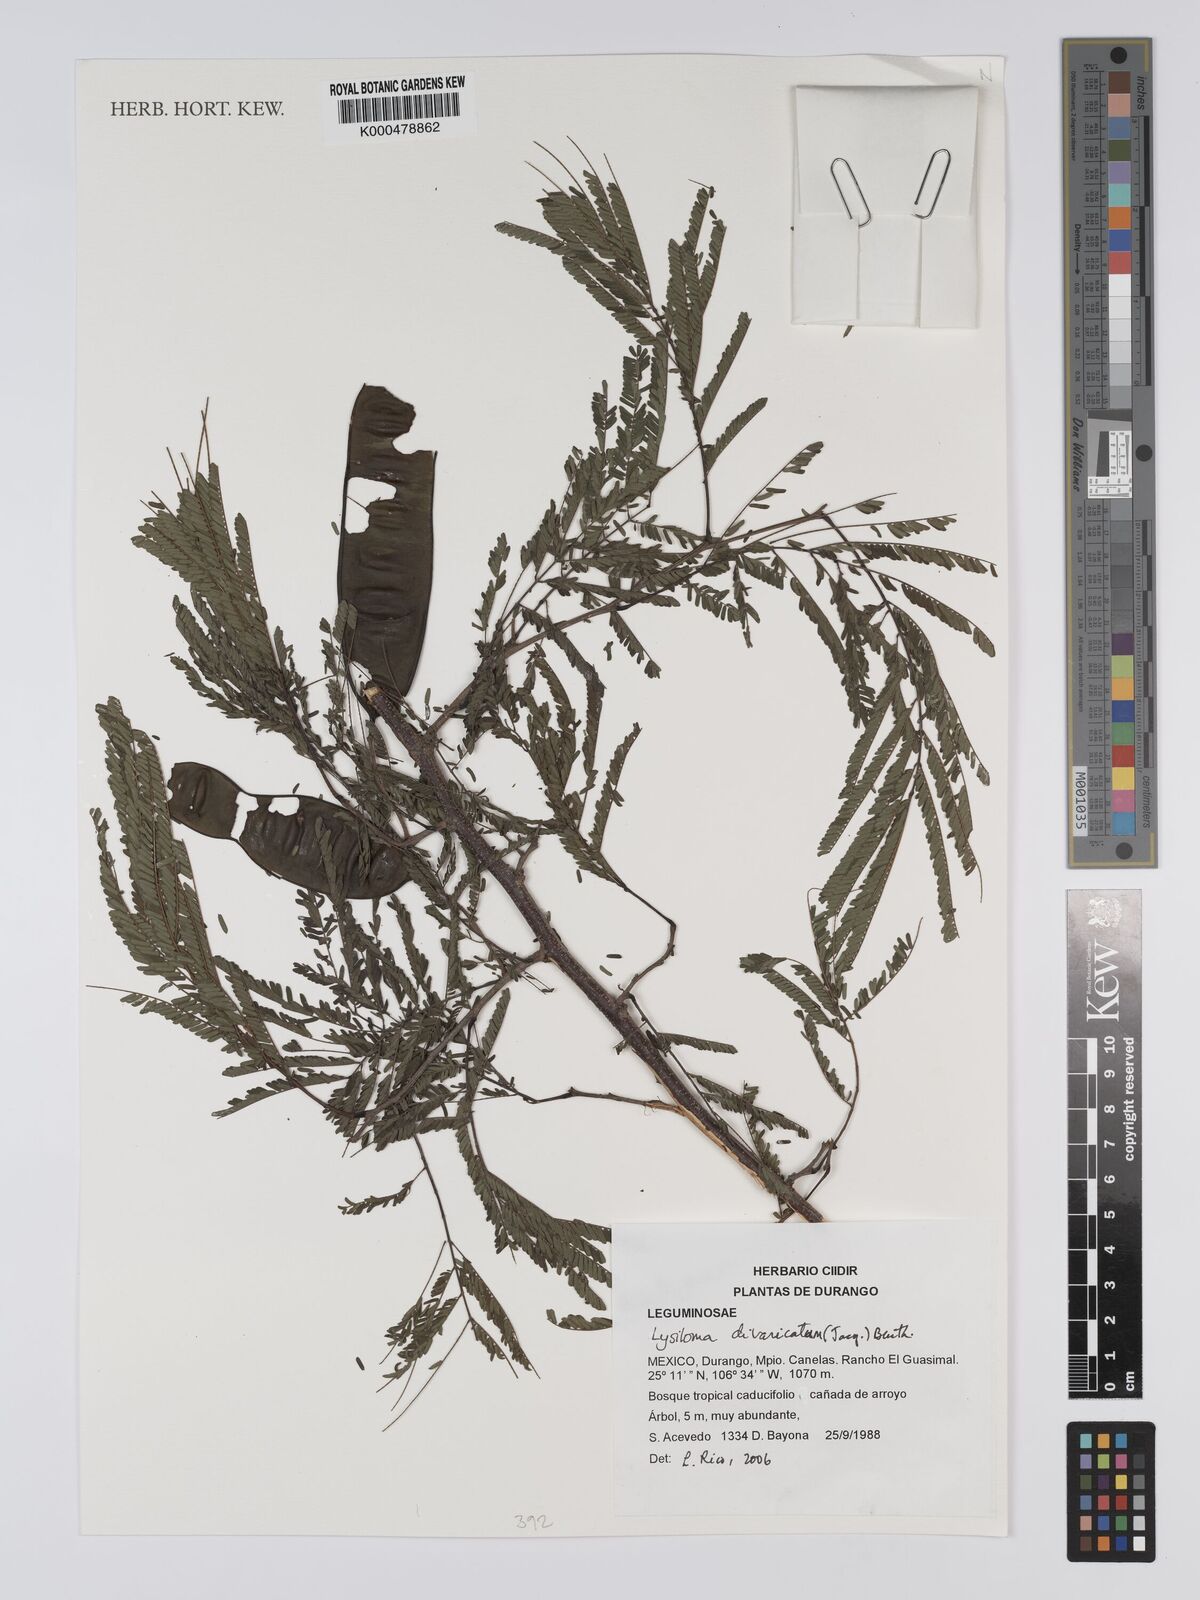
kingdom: Plantae
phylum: Tracheophyta
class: Magnoliopsida
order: Fabales
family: Fabaceae
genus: Lysiloma
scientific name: Lysiloma
